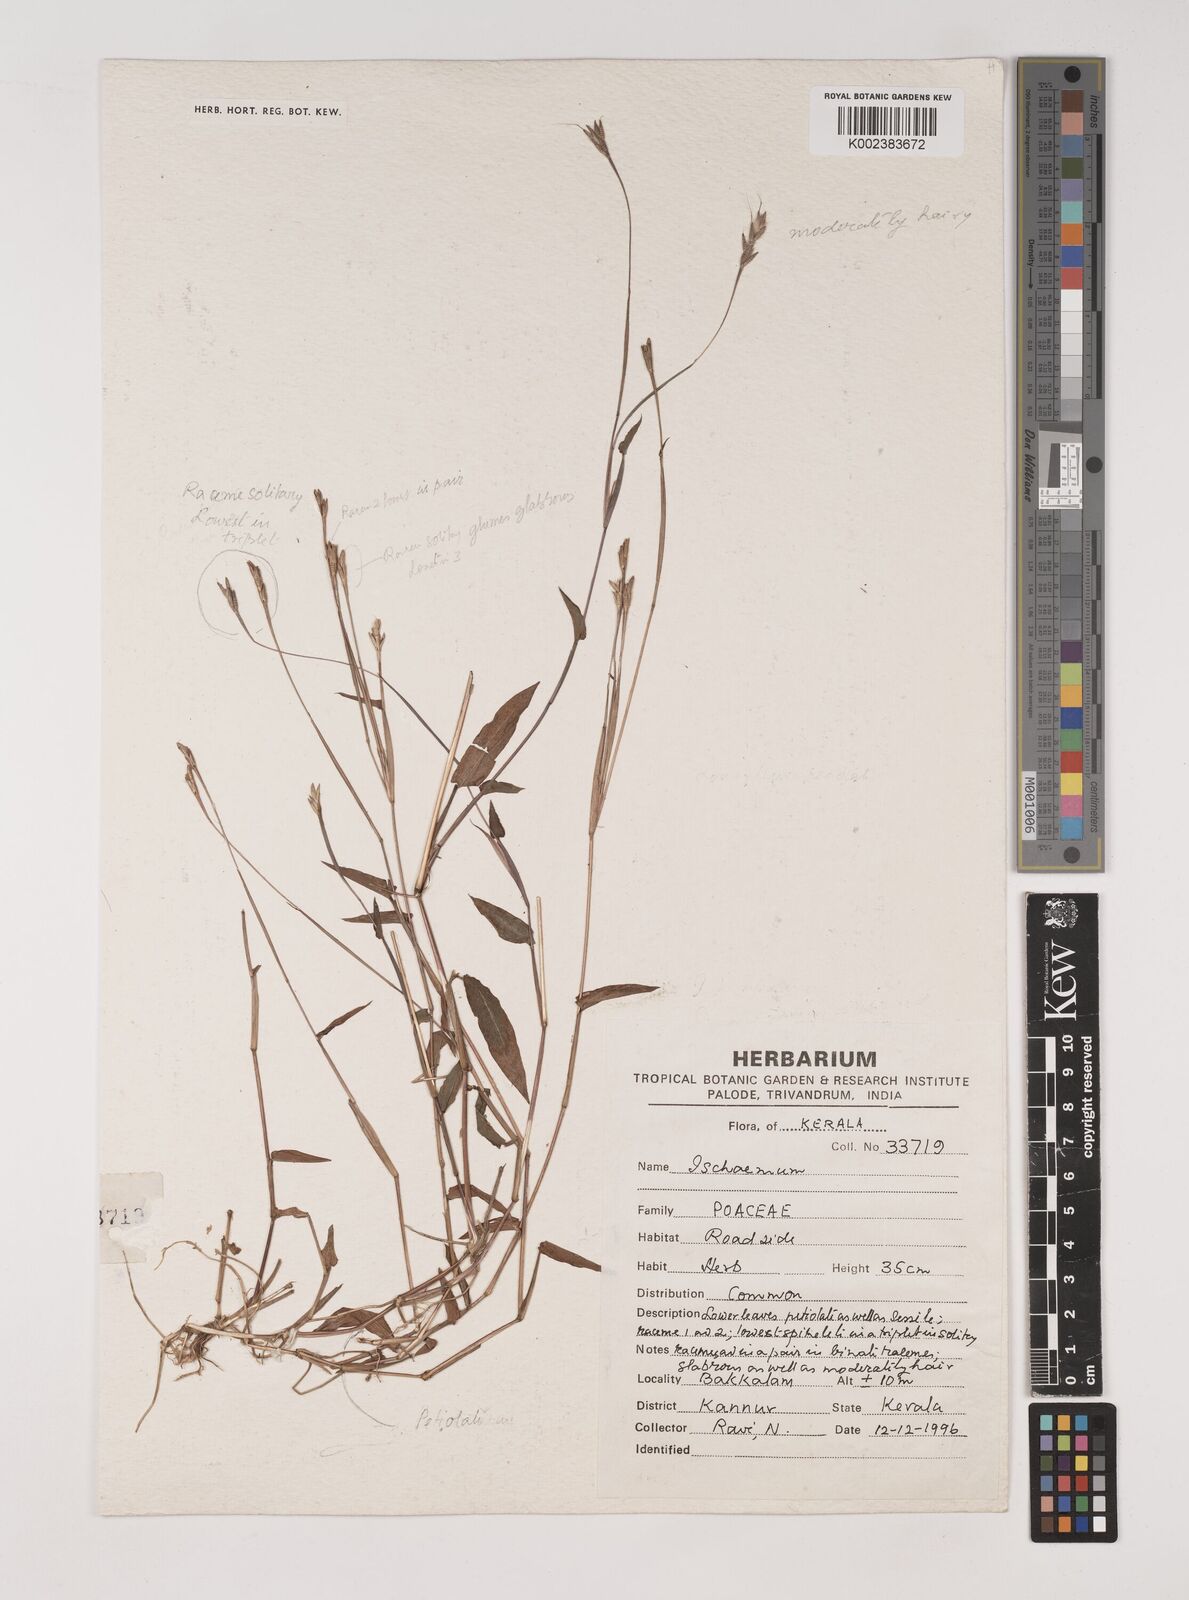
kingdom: Plantae
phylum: Tracheophyta
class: Liliopsida
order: Poales
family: Poaceae
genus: Ischaemum
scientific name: Ischaemum
